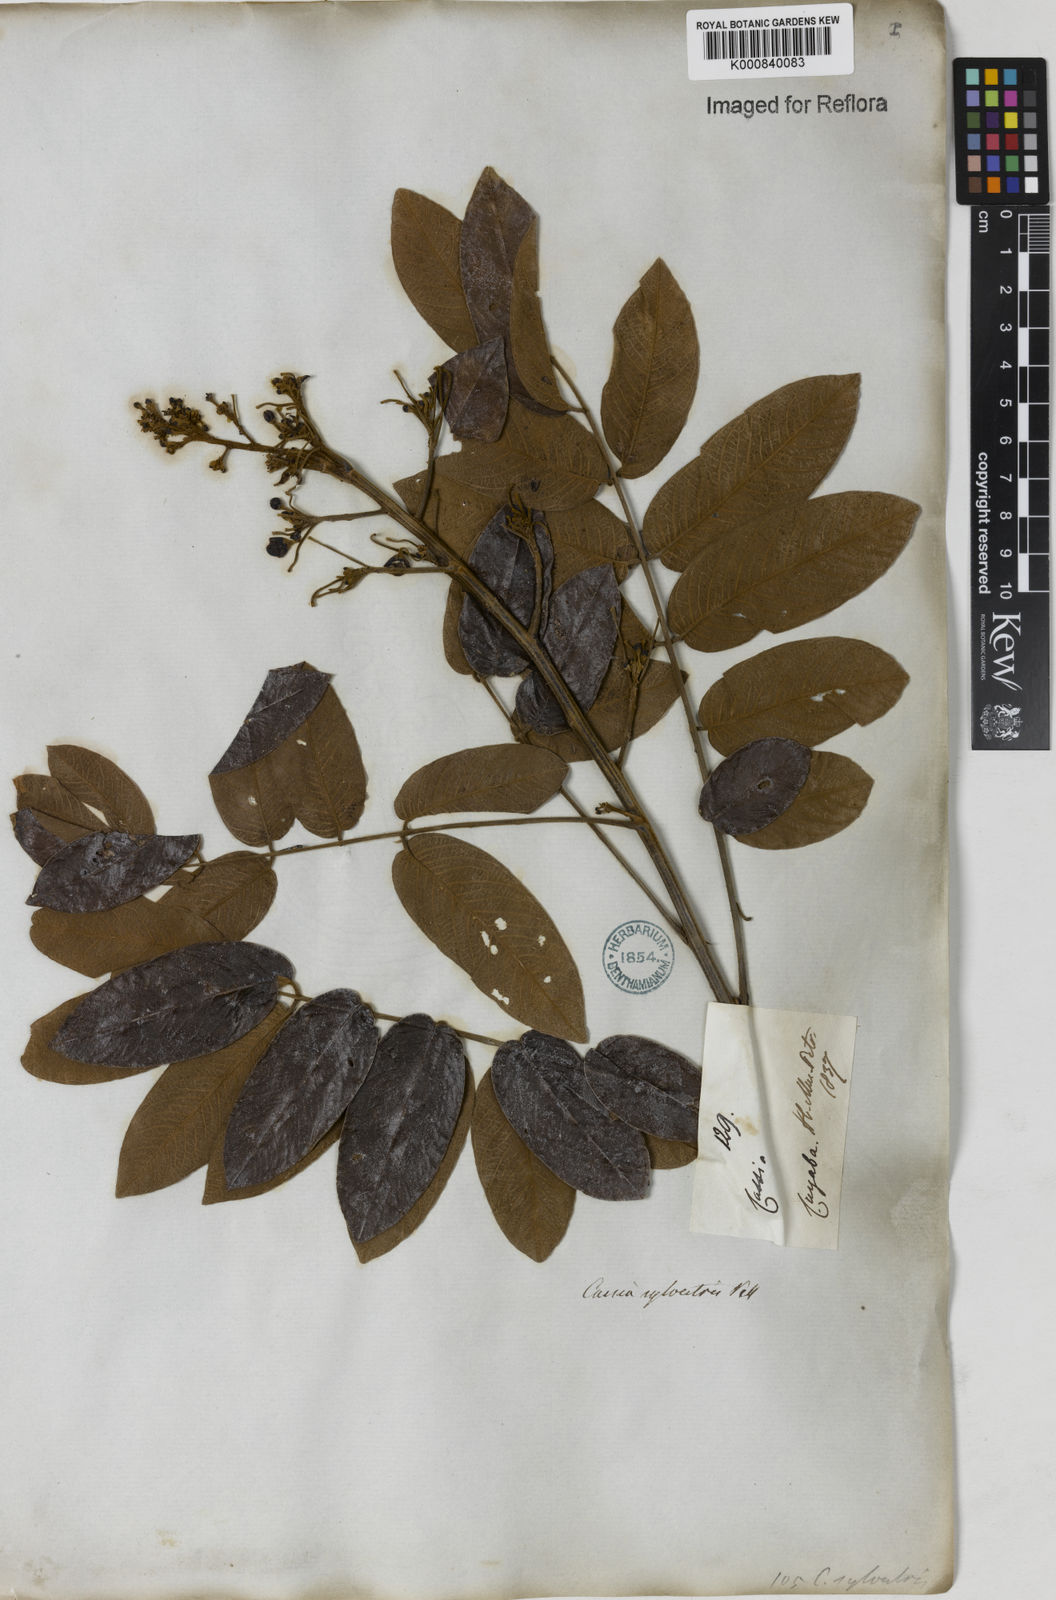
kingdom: Plantae
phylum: Tracheophyta
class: Magnoliopsida
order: Fabales
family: Fabaceae
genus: Senna
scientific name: Senna silvestris
